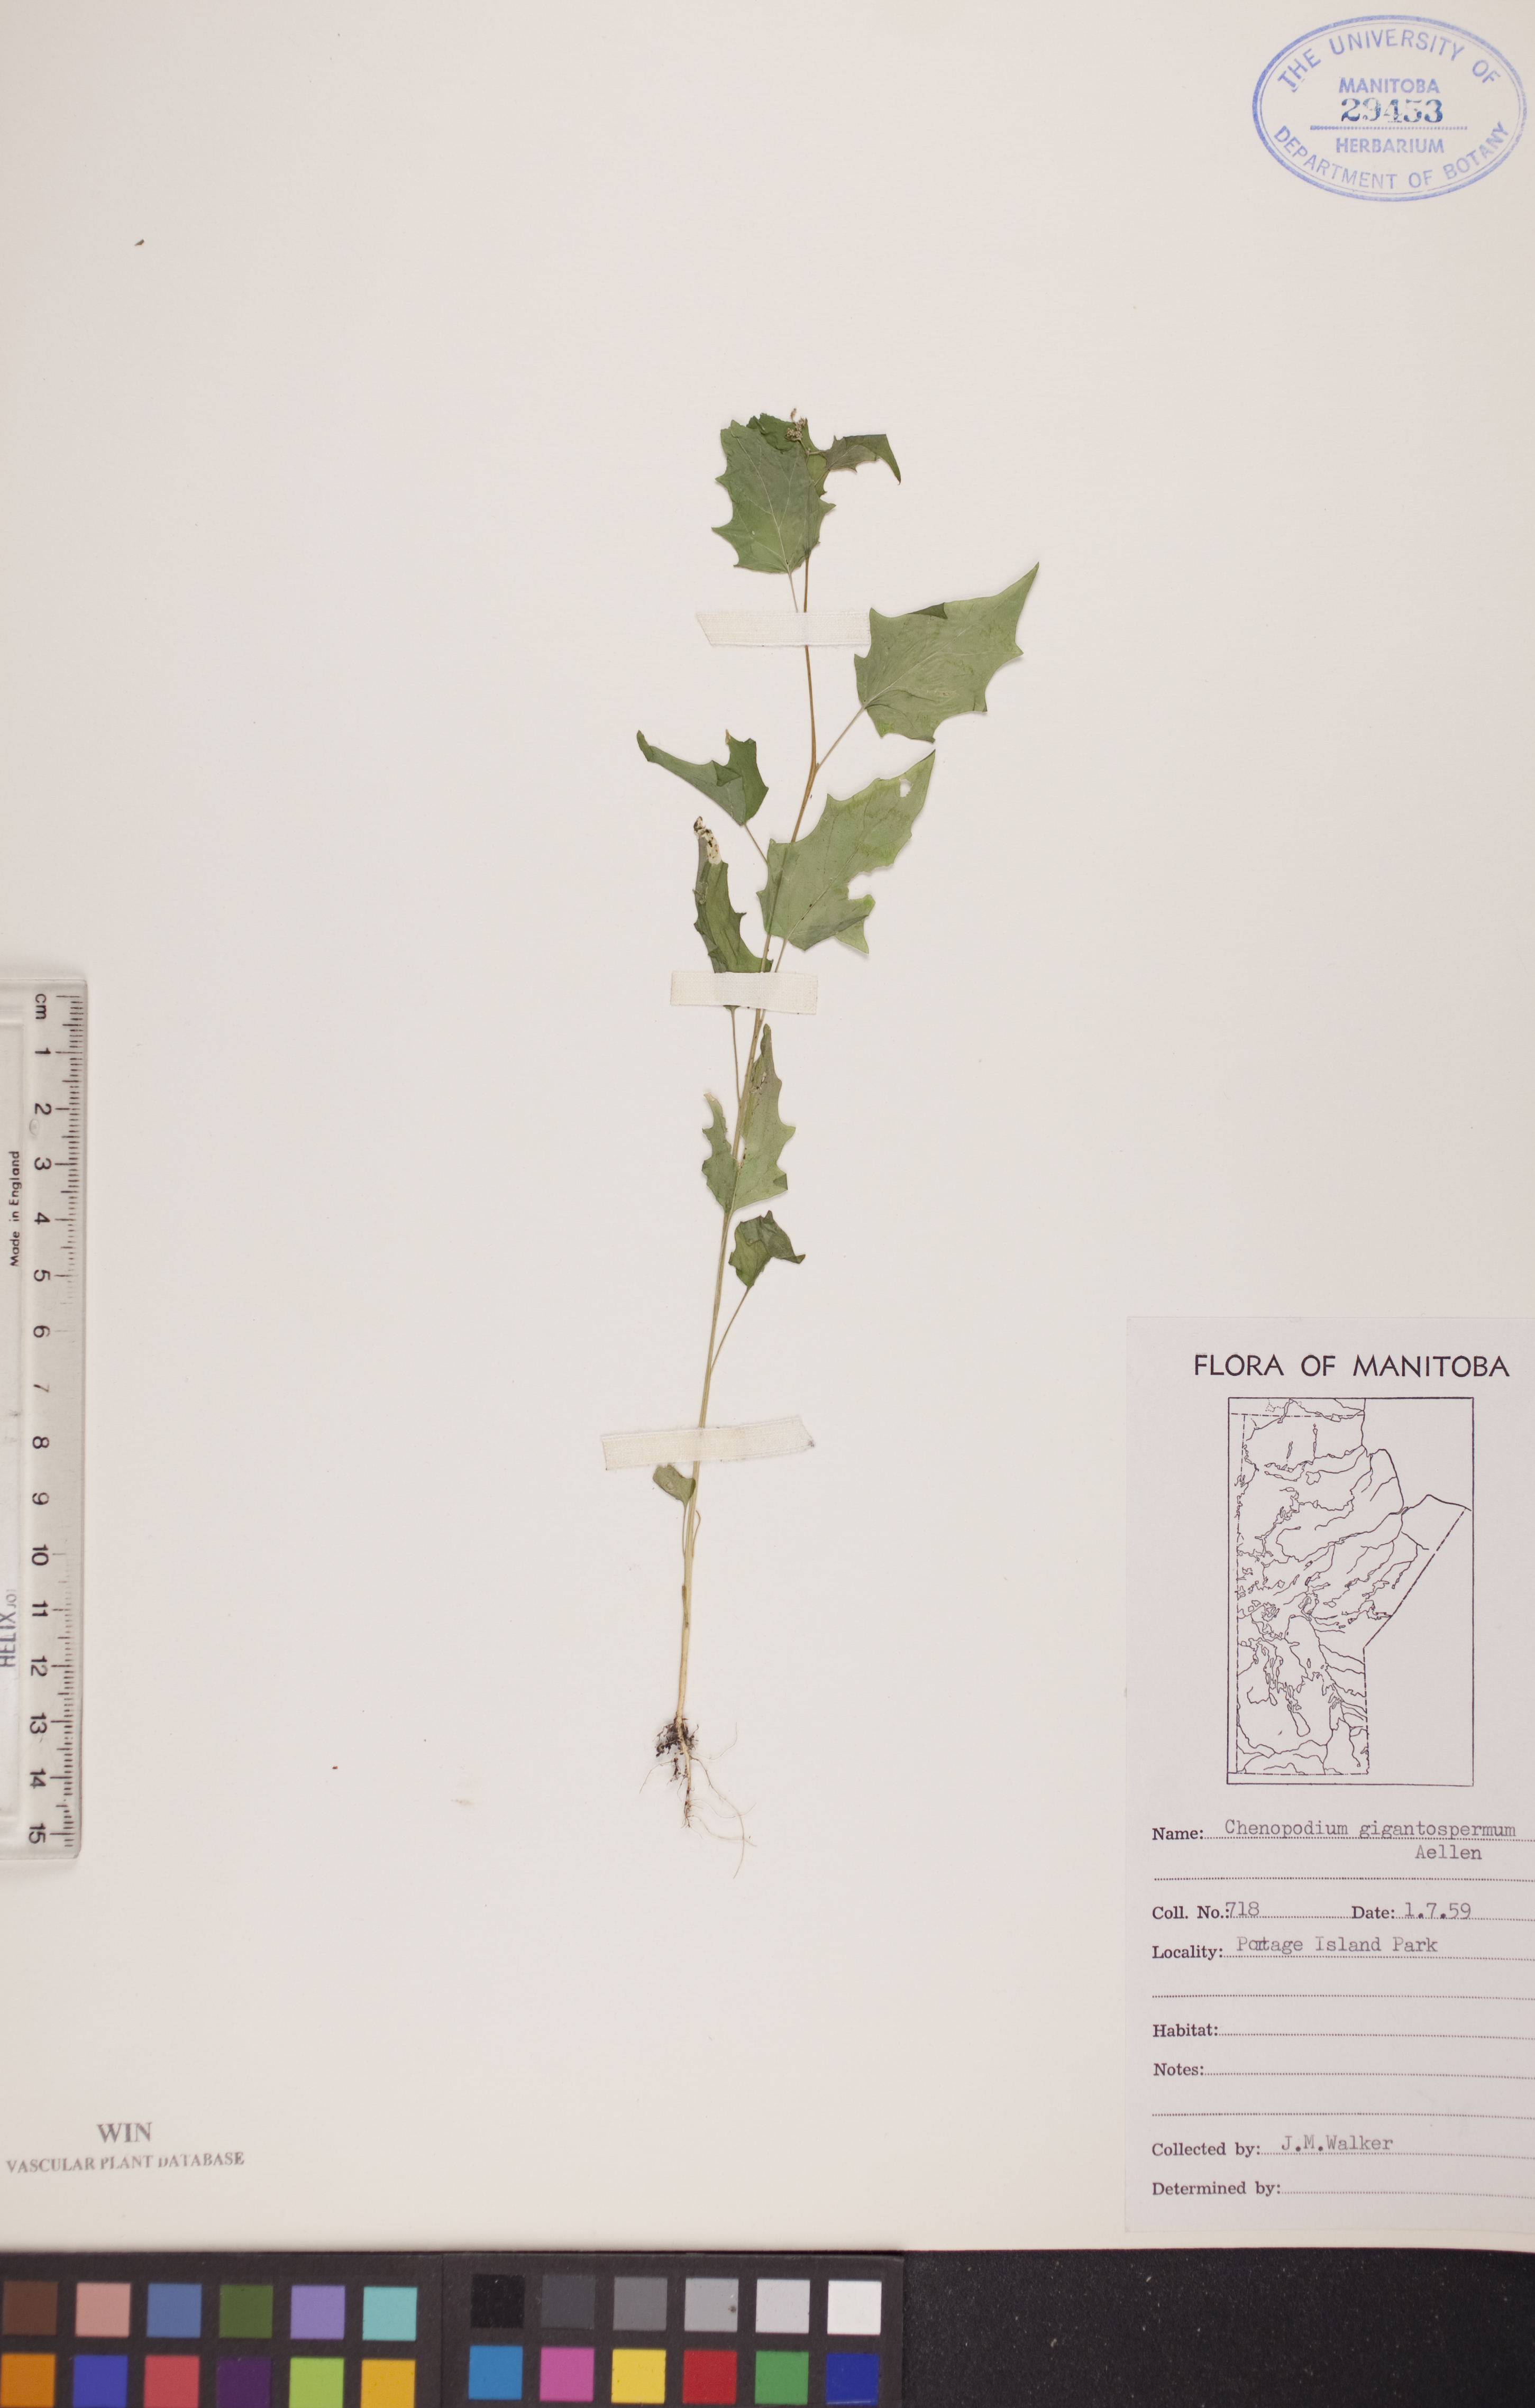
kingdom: Plantae
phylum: Tracheophyta
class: Magnoliopsida
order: Caryophyllales
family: Amaranthaceae
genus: Chenopodiastrum
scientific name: Chenopodiastrum simplex
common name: Large-seed goosefoot
